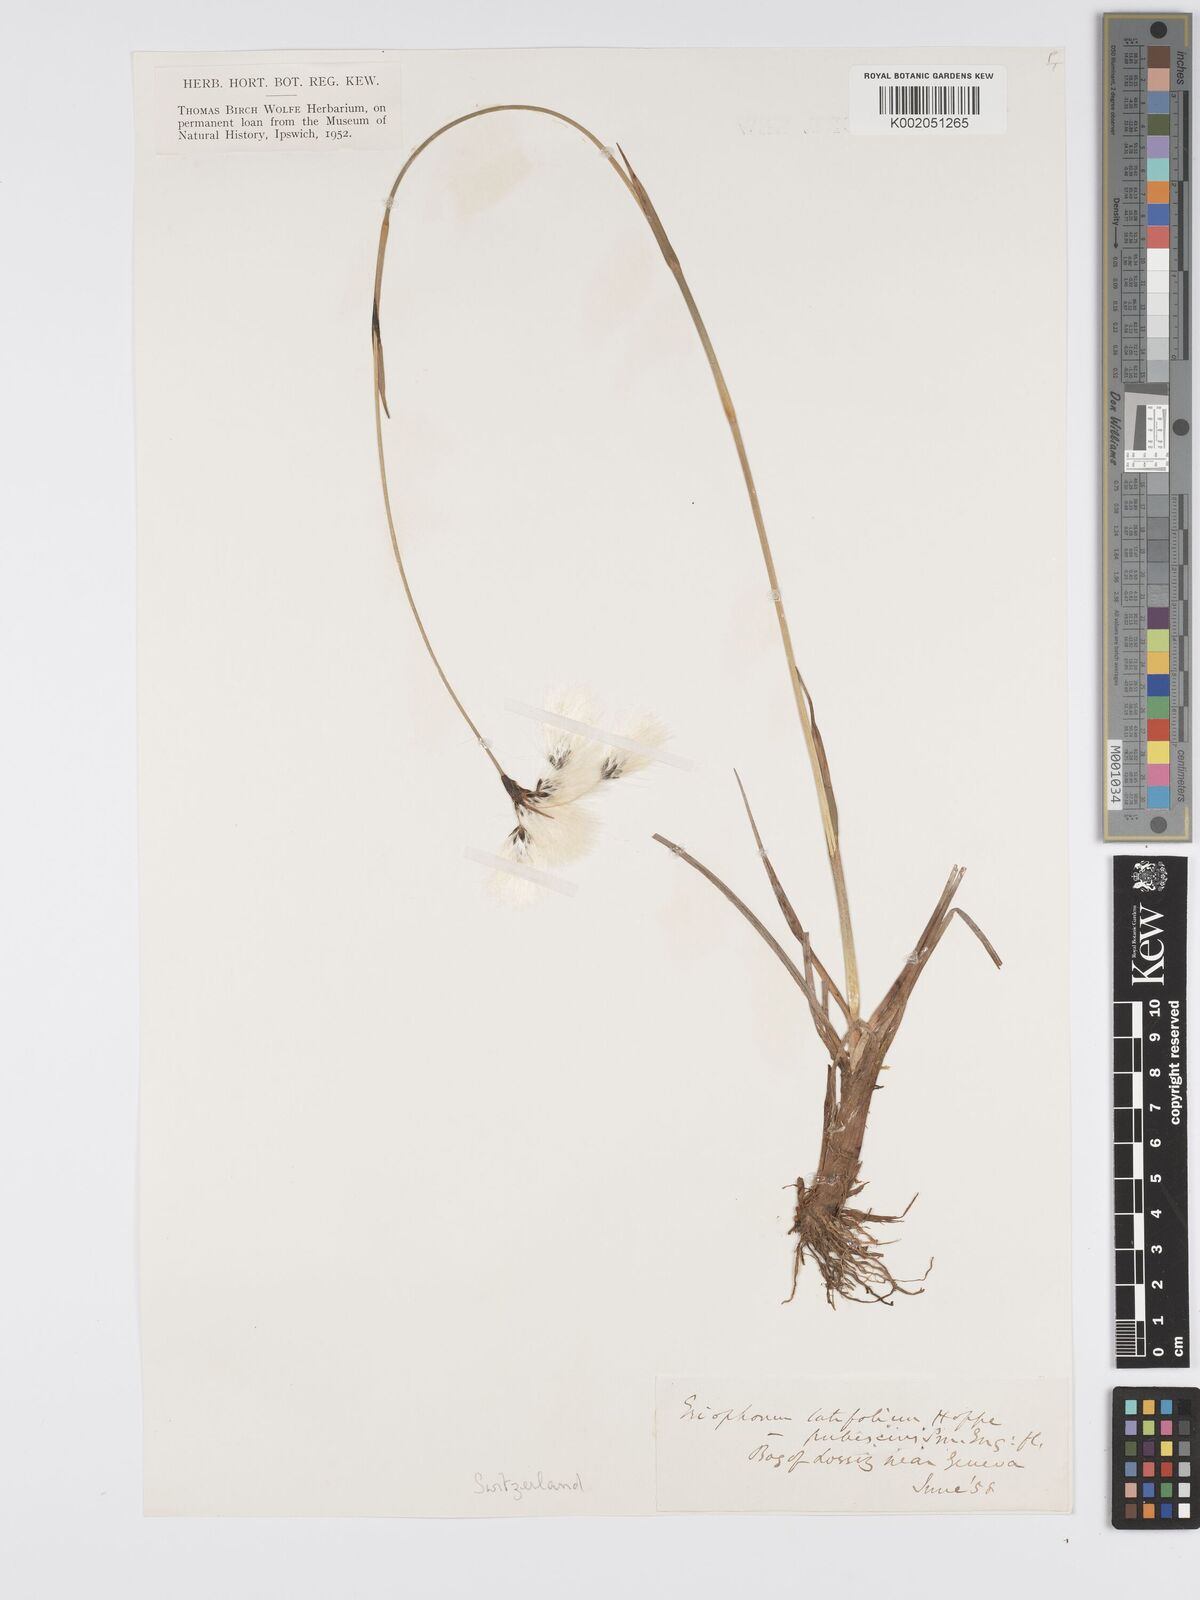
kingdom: Plantae
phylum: Tracheophyta
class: Liliopsida
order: Poales
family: Cyperaceae
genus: Eriophorum
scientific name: Eriophorum latifolium
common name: Broad-leaved cottongrass
